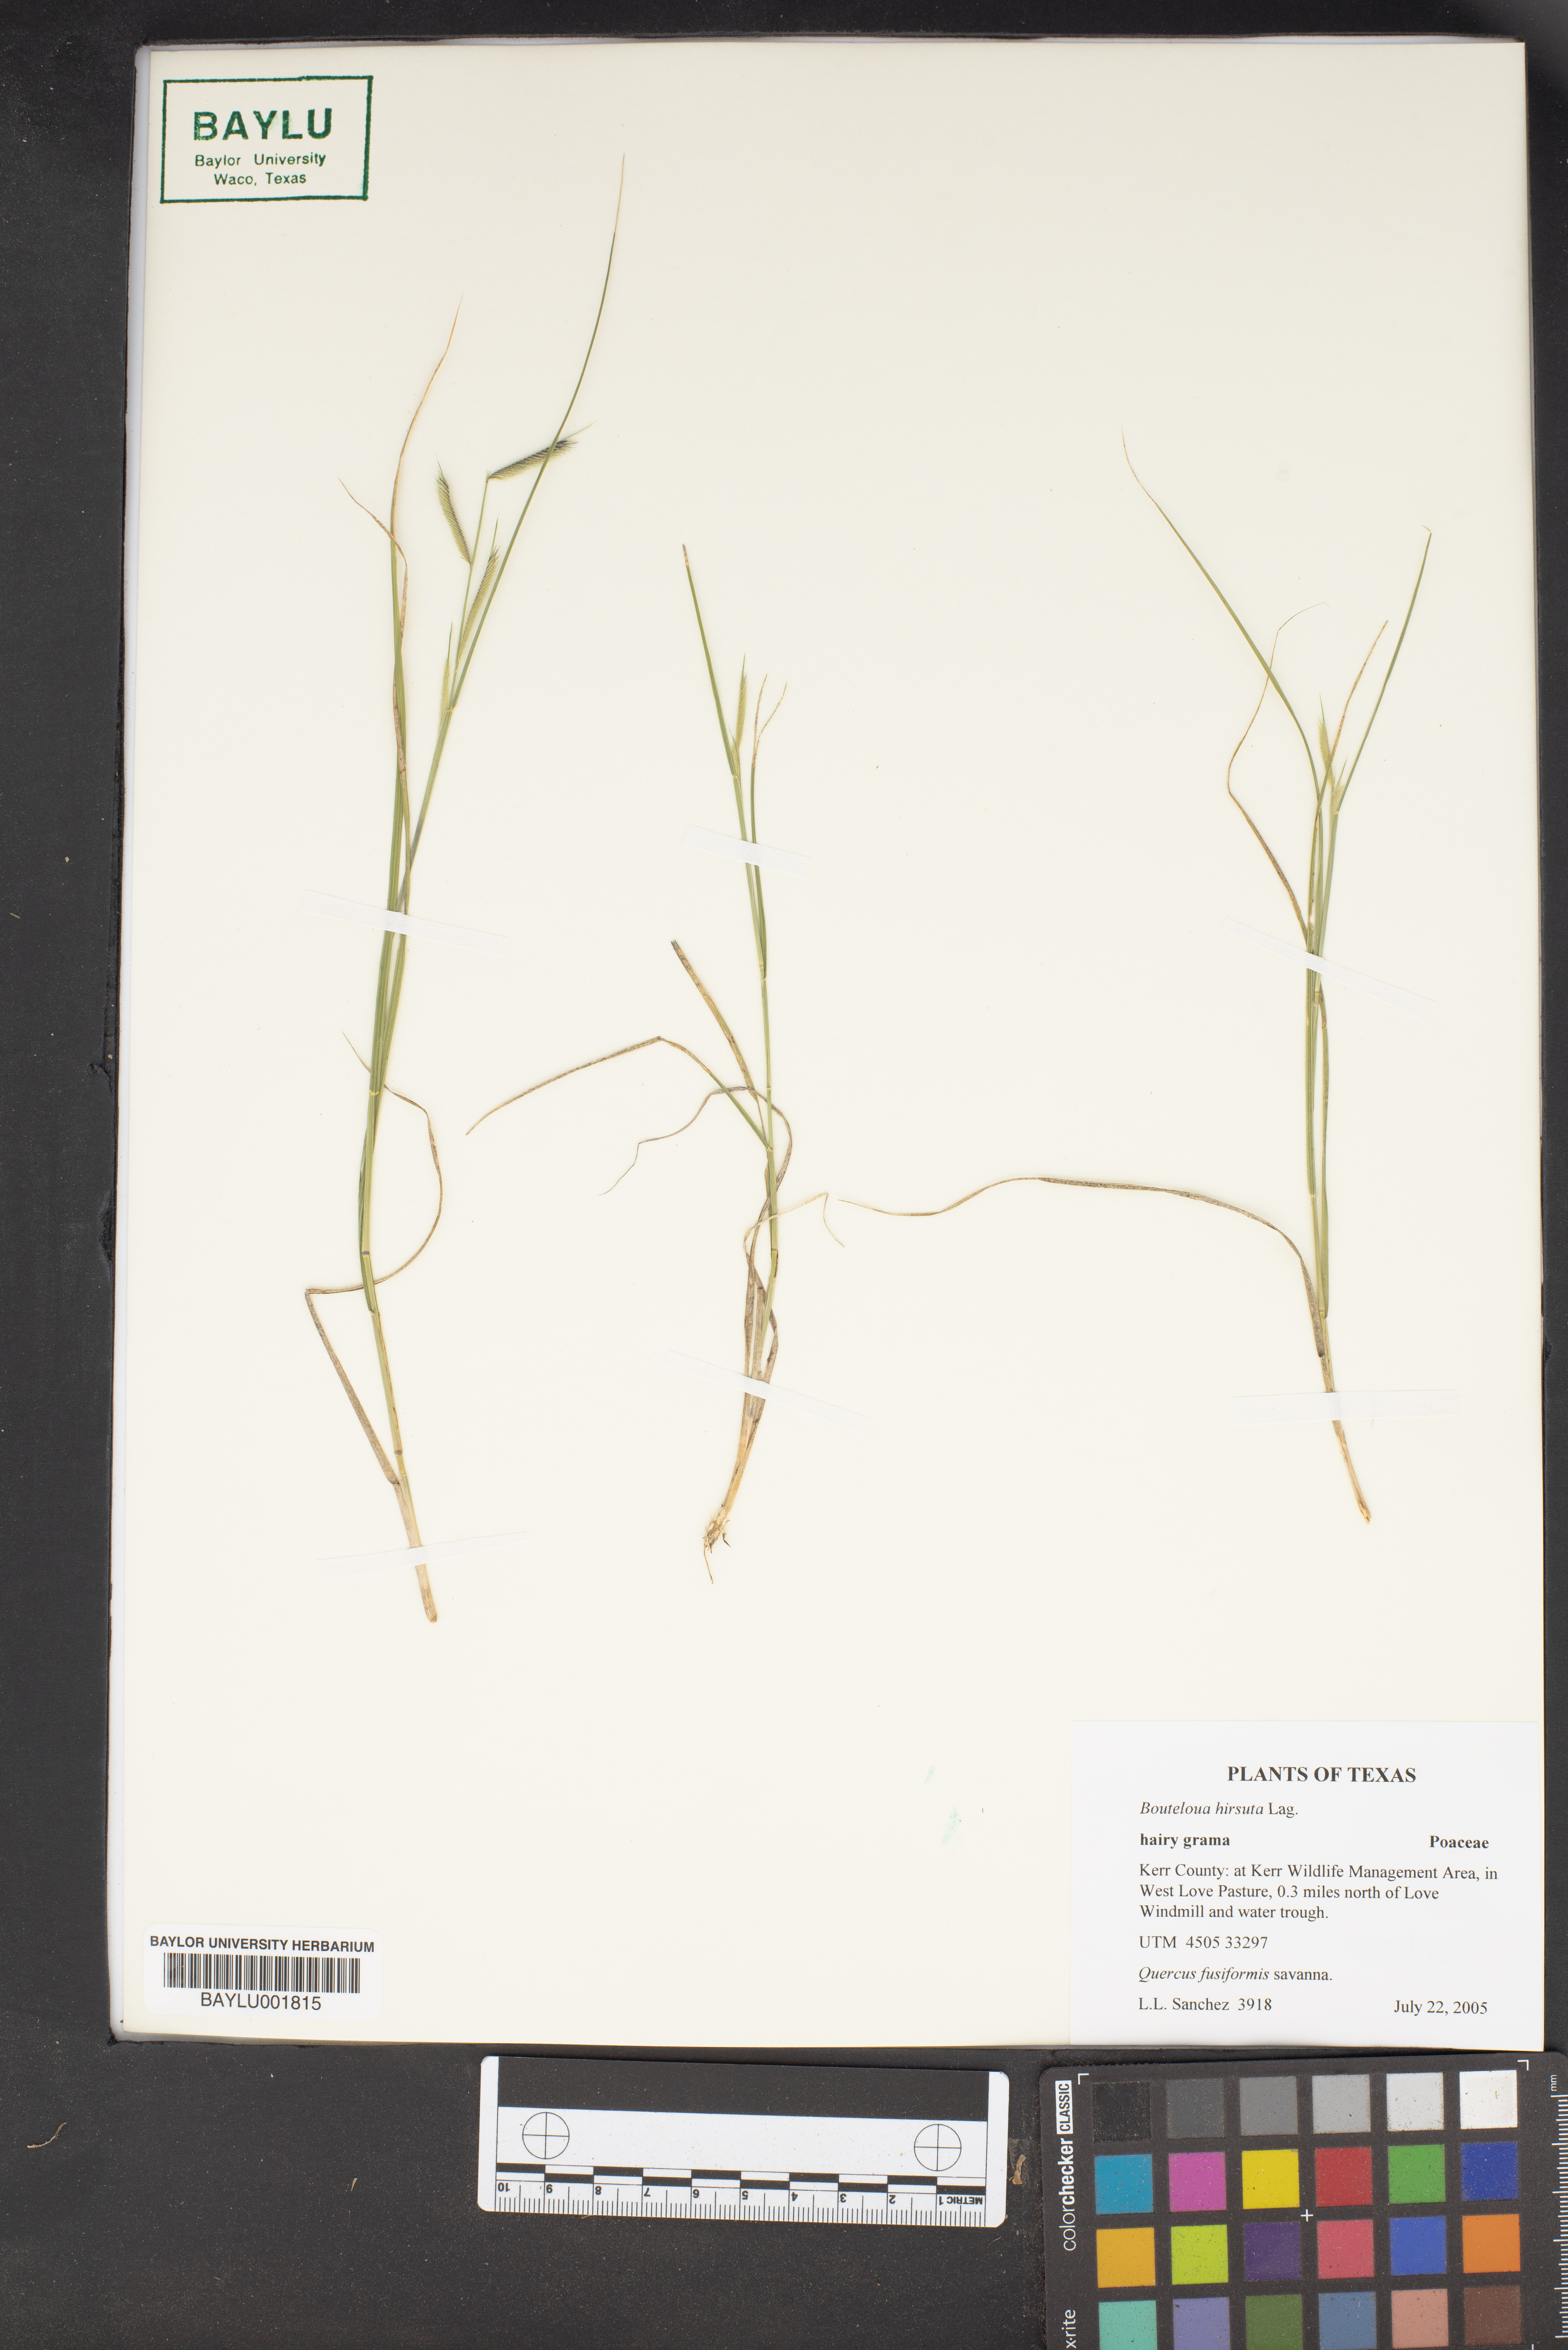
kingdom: Plantae
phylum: Tracheophyta
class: Liliopsida
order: Poales
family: Poaceae
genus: Bouteloua
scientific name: Bouteloua hirsuta
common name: Hairy grama
